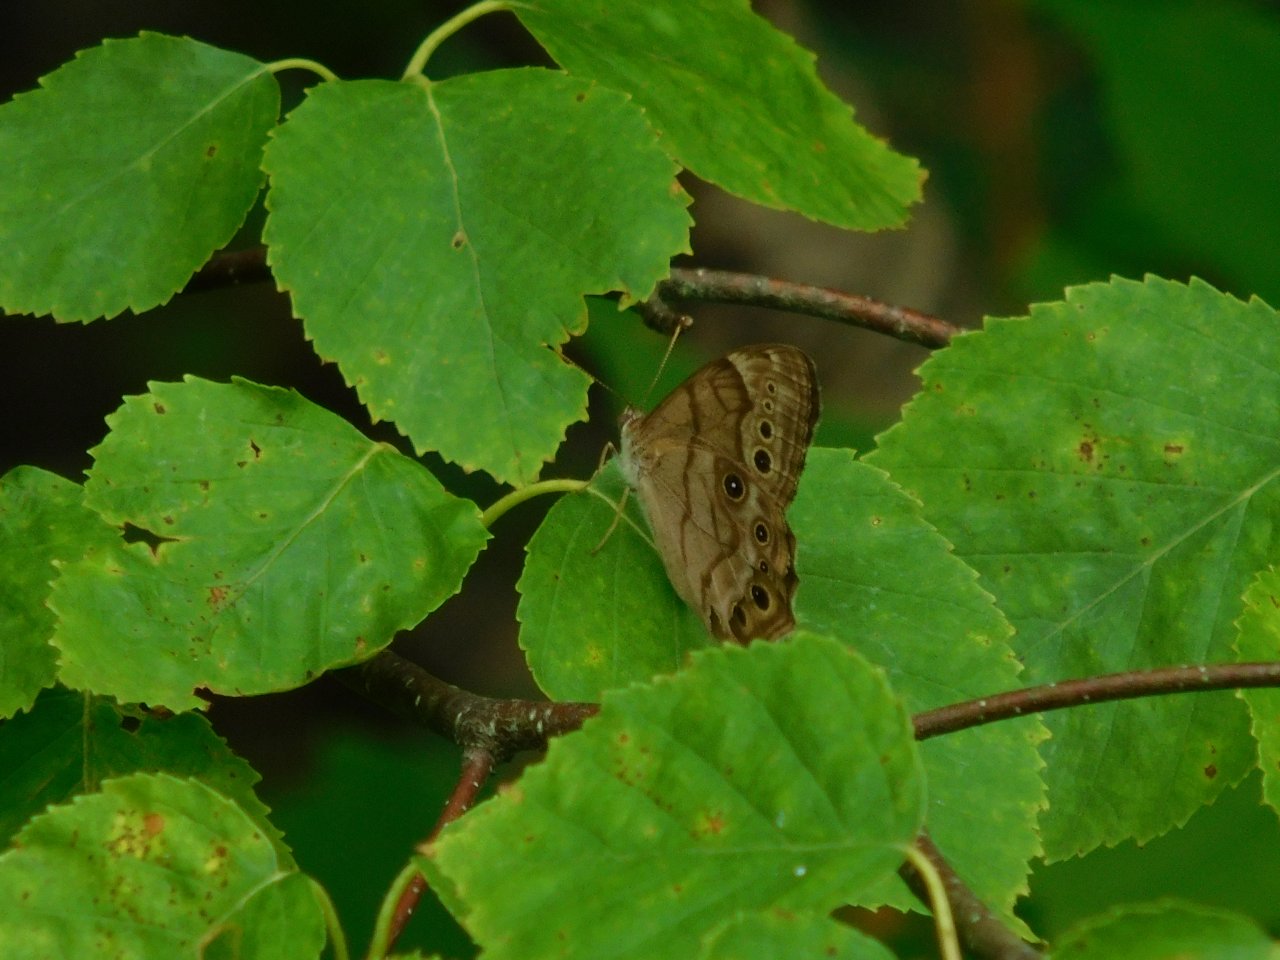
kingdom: Animalia
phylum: Arthropoda
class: Insecta
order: Lepidoptera
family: Nymphalidae
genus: Lethe
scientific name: Lethe anthedon
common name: Northern Pearly-Eye
